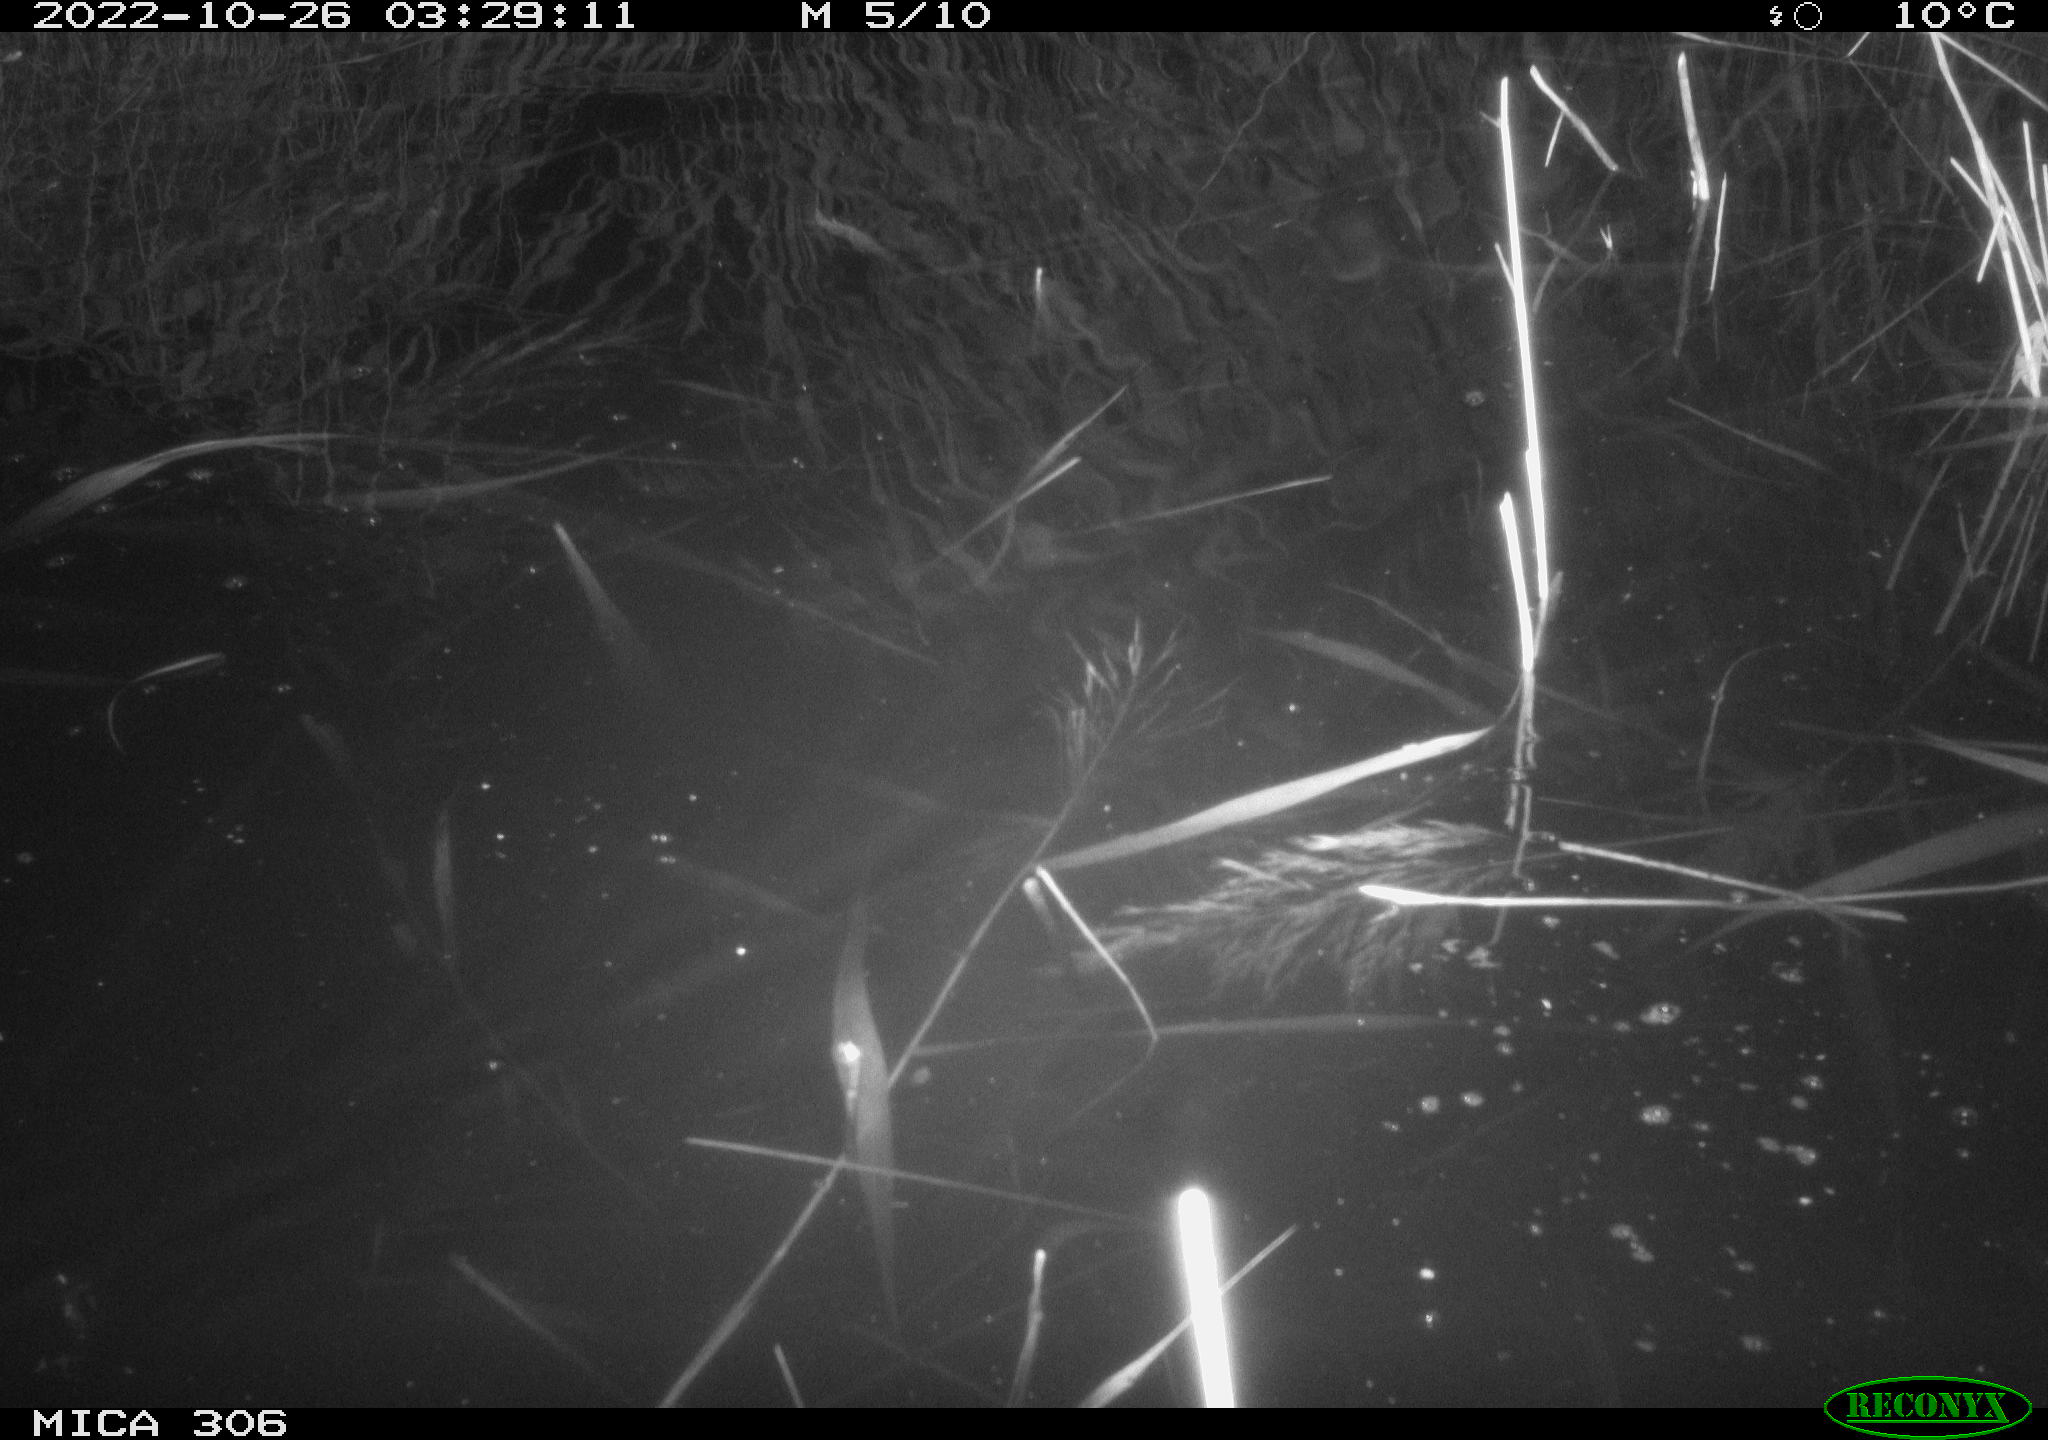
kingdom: Animalia
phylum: Chordata
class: Mammalia
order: Rodentia
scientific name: Rodentia
